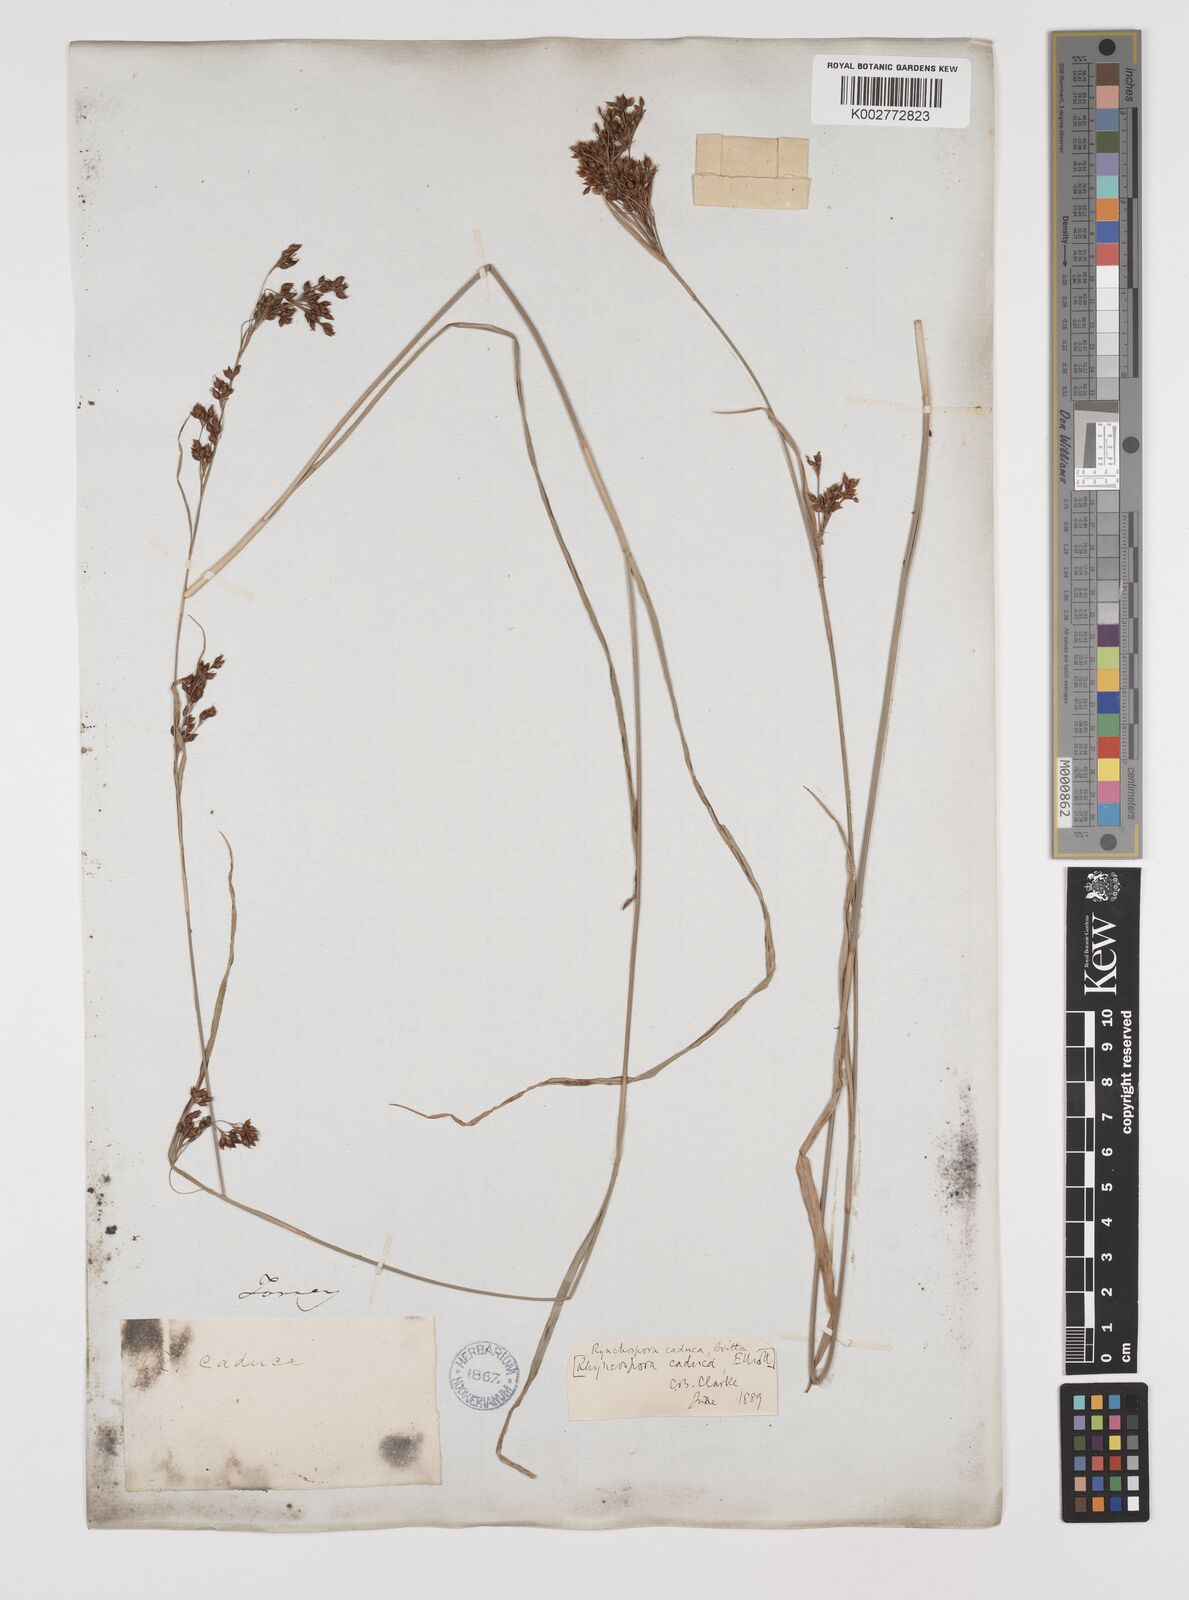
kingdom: Plantae
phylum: Tracheophyta
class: Liliopsida
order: Poales
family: Cyperaceae
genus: Rhynchospora
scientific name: Rhynchospora caduca
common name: Anglestem beaksedge
